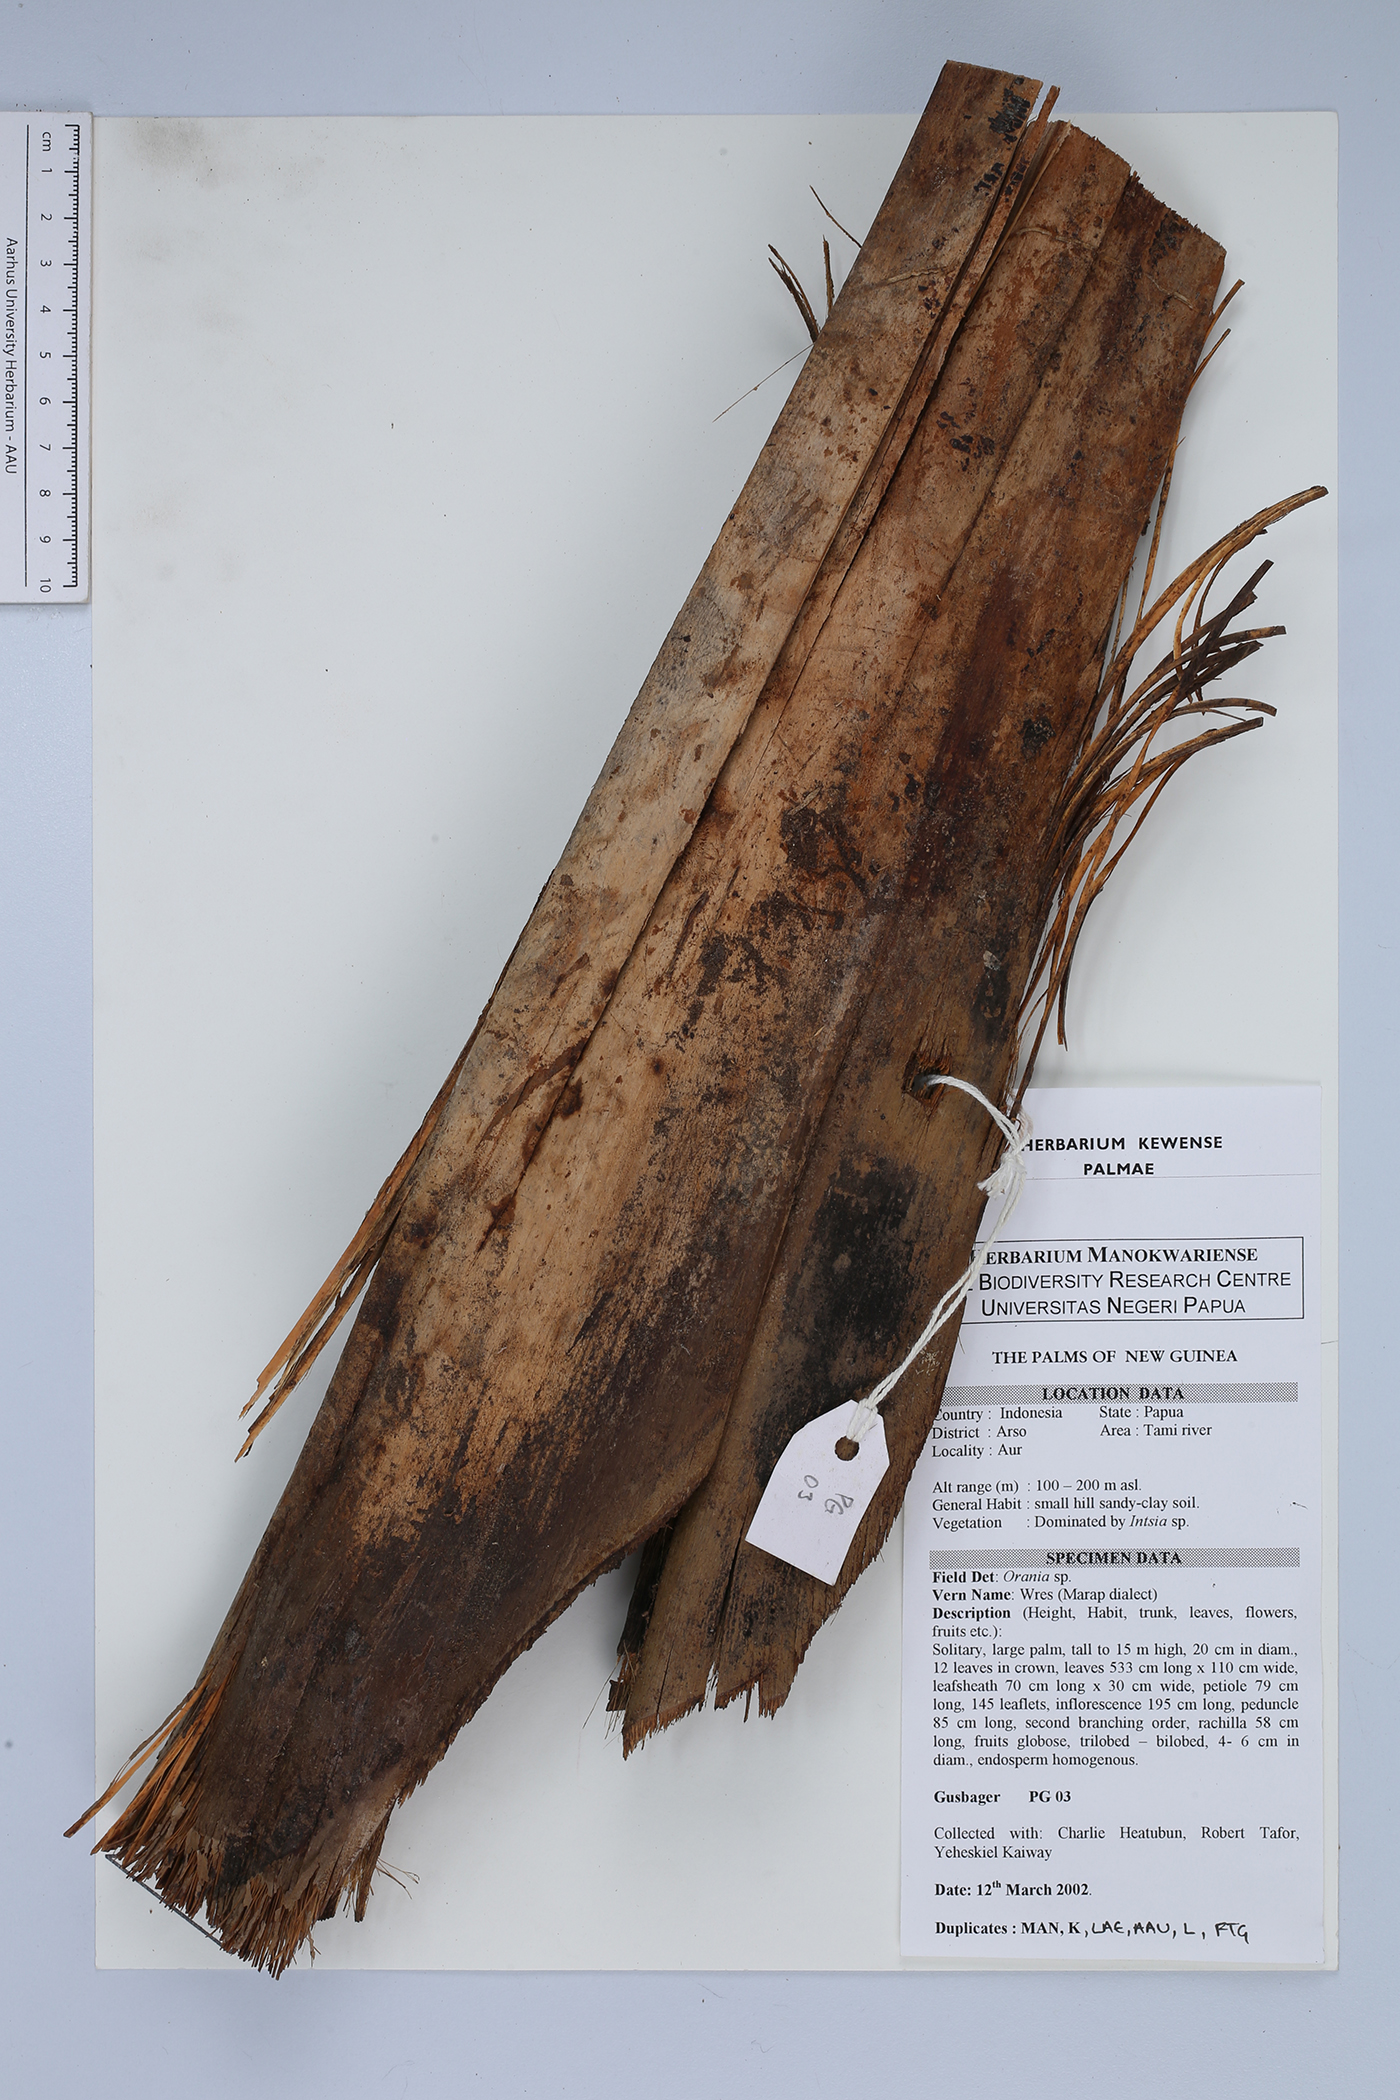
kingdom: Plantae
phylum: Tracheophyta
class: Liliopsida
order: Arecales
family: Arecaceae
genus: Orania
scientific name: Orania
